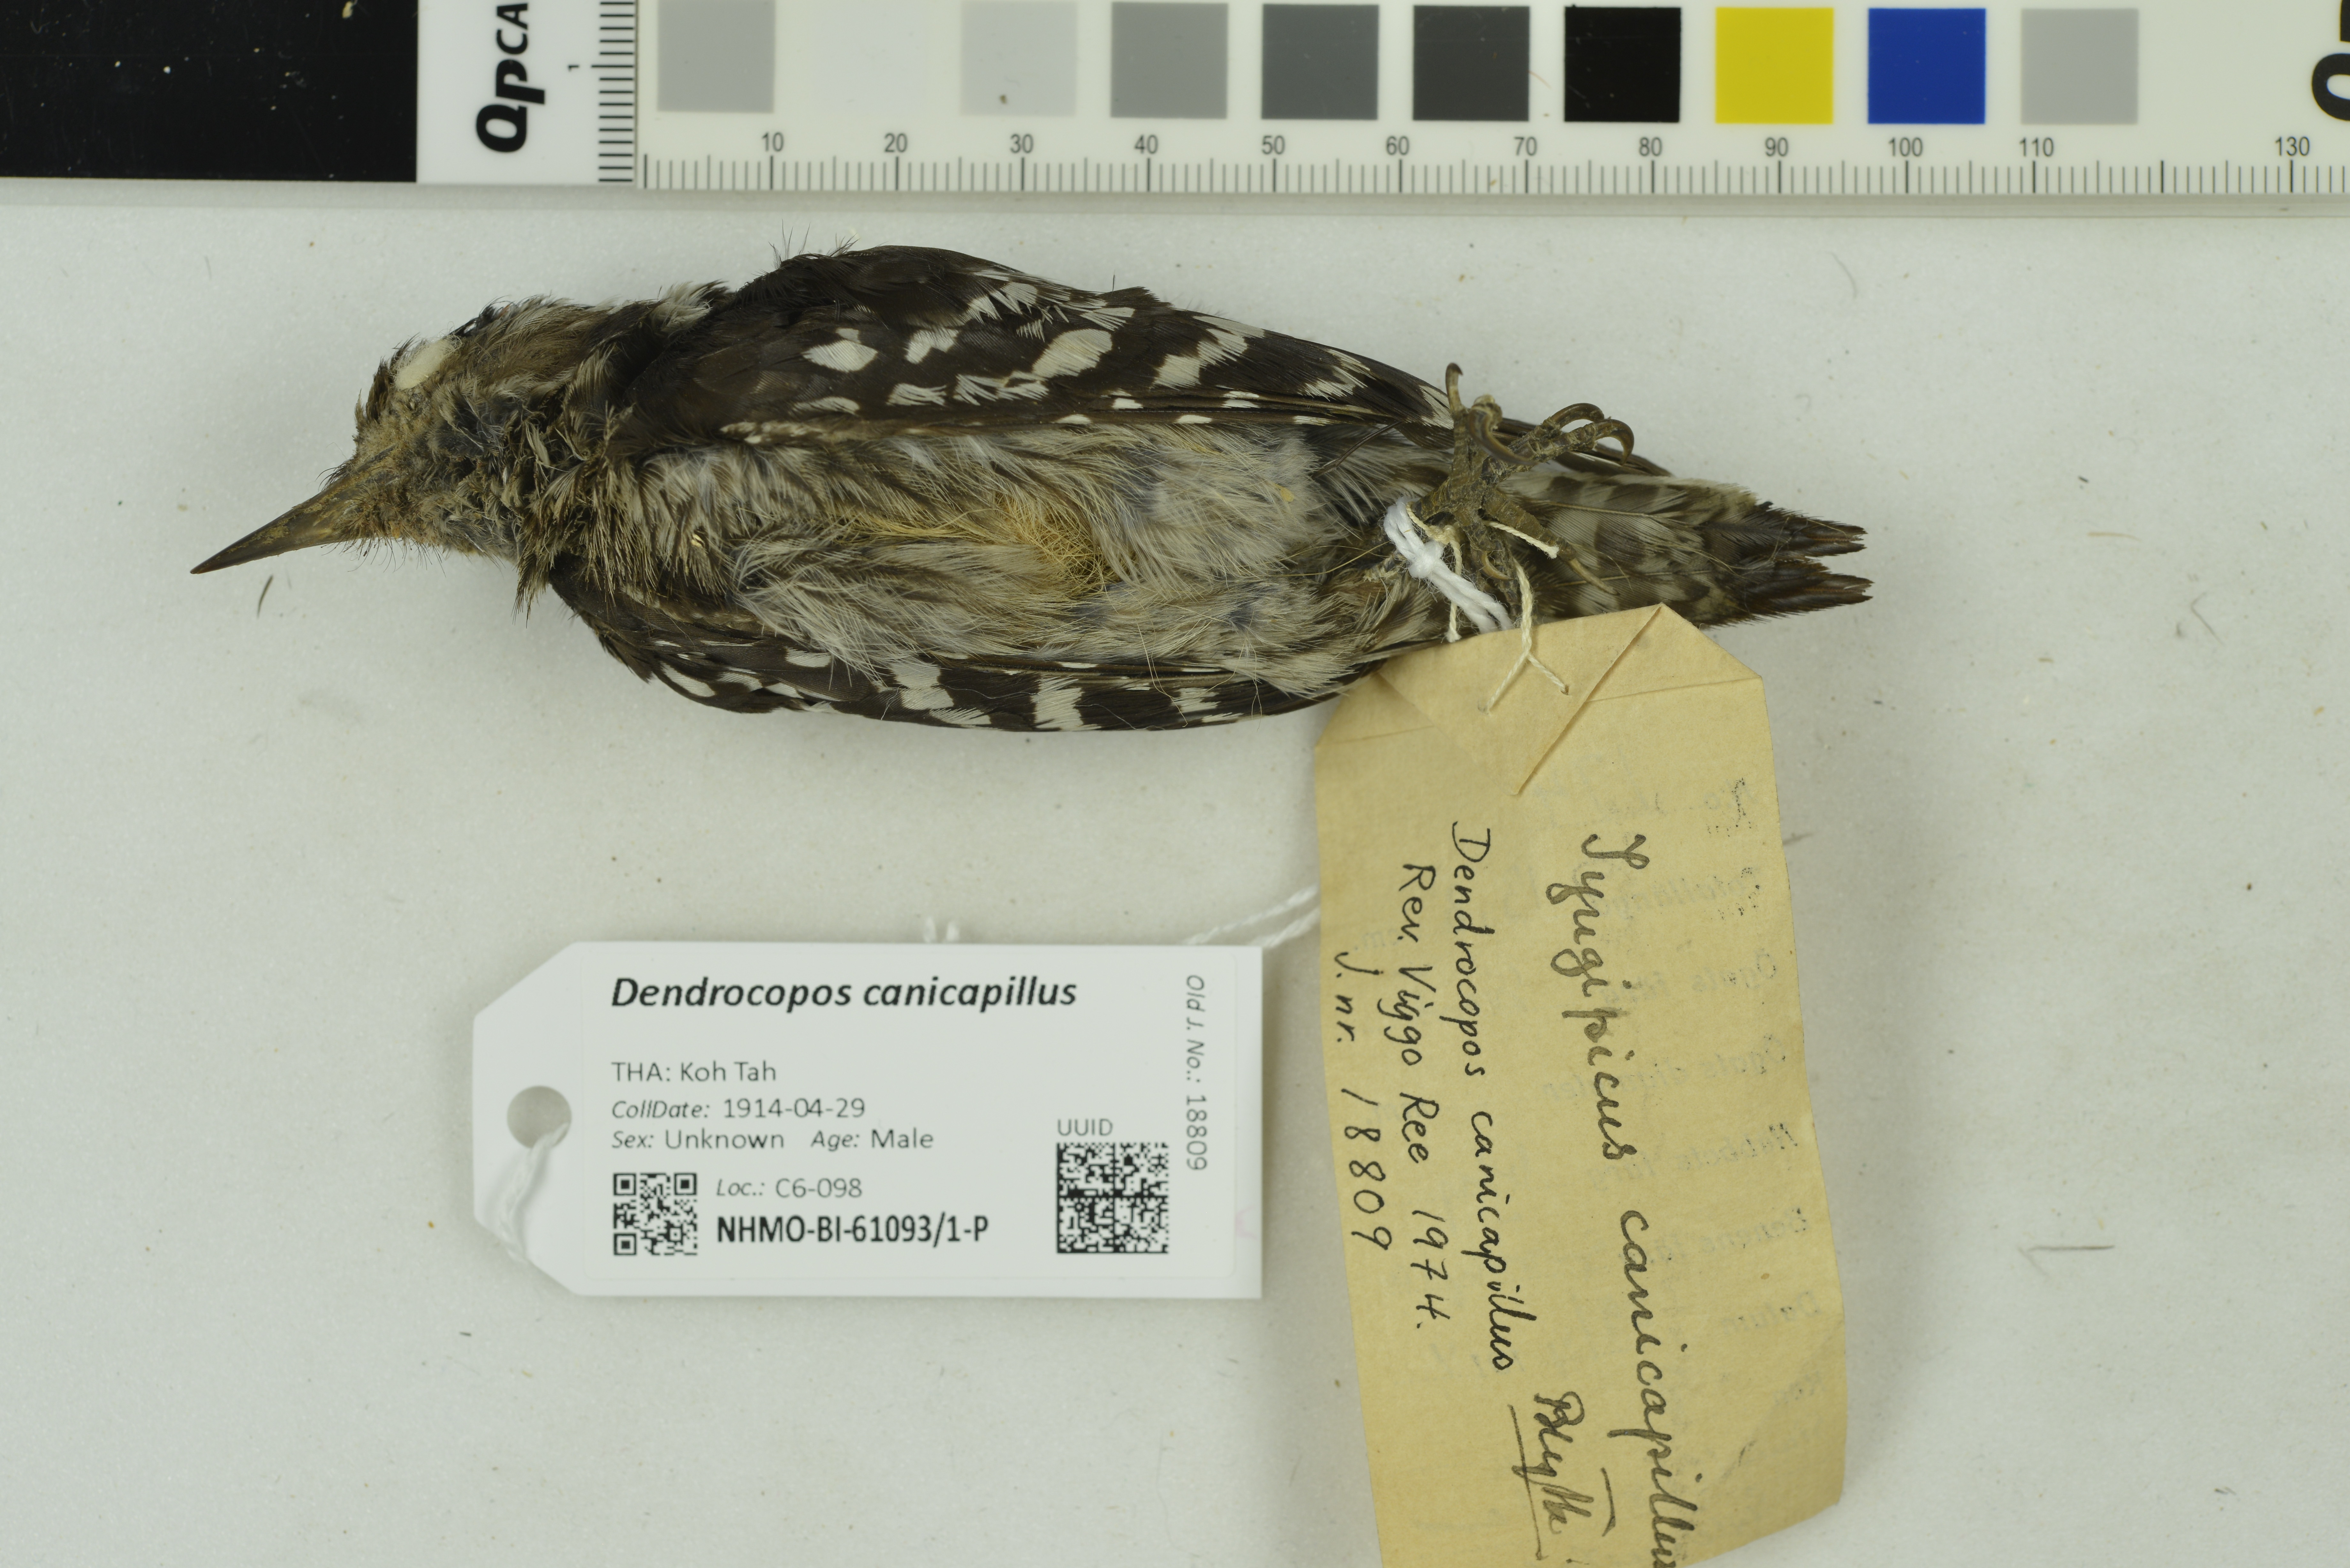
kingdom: Animalia
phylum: Chordata
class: Aves
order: Piciformes
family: Picidae
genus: Yungipicus
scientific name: Yungipicus canicapillus
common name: Grey-capped pygmy woodpecker
